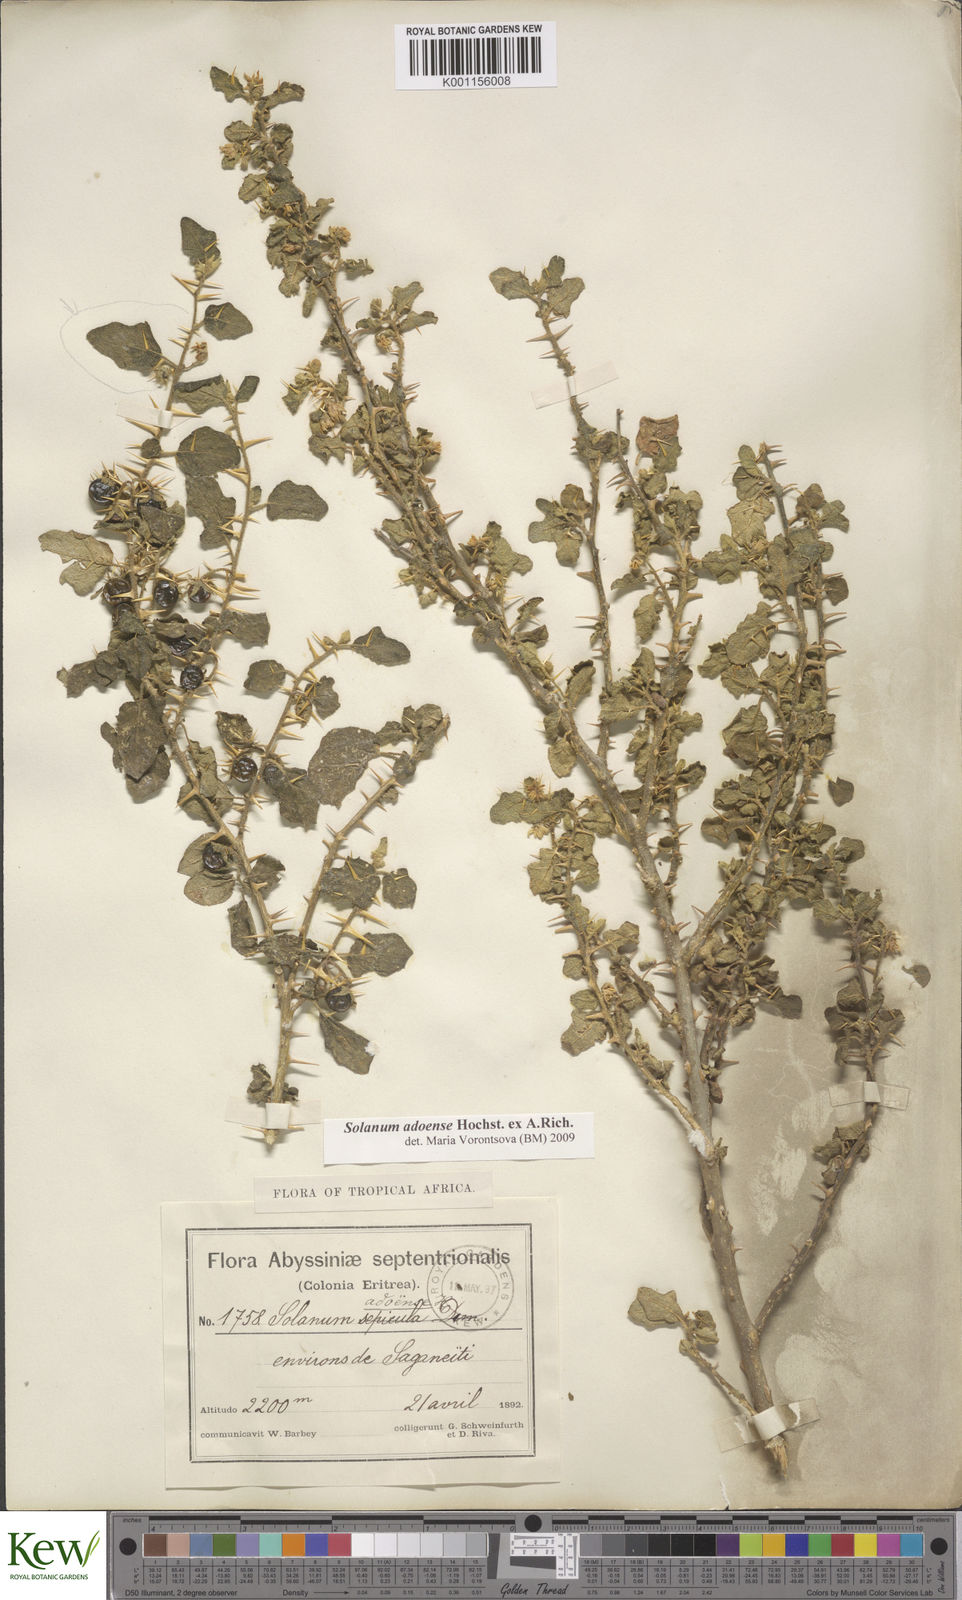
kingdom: Plantae
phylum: Tracheophyta
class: Magnoliopsida
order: Solanales
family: Solanaceae
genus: Solanum
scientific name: Solanum adoense
